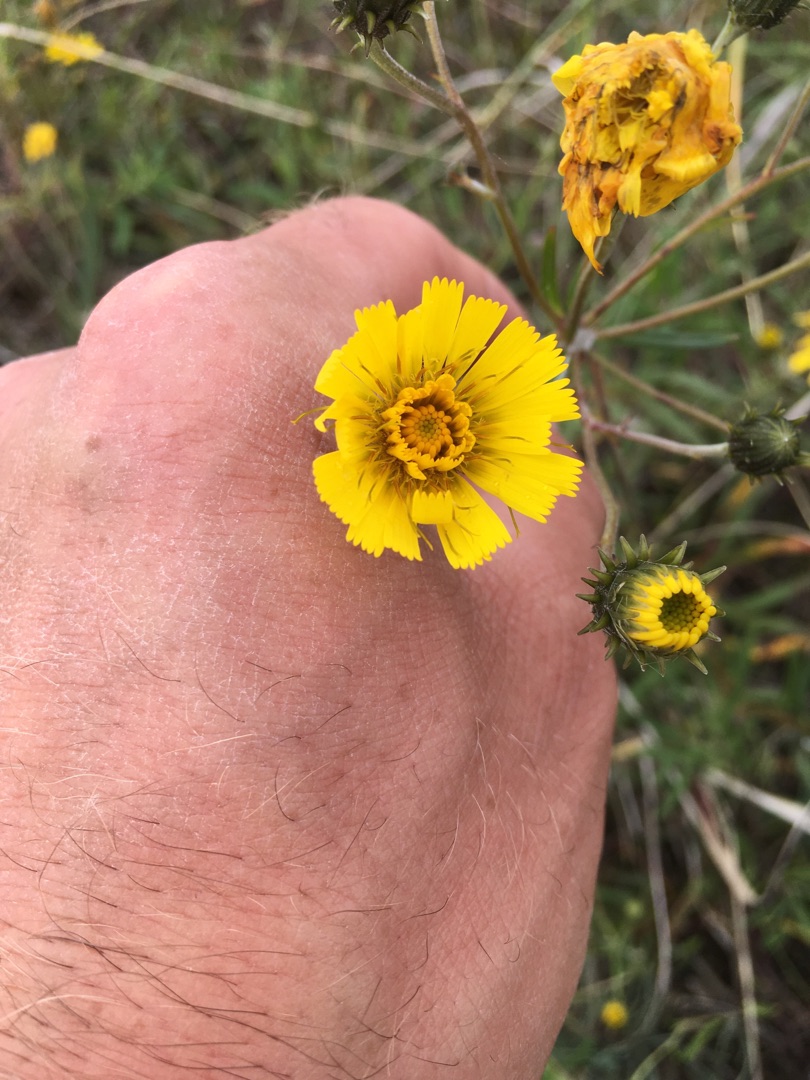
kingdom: Plantae
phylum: Tracheophyta
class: Magnoliopsida
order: Asterales
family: Asteraceae
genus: Hieracium
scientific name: Hieracium umbellatum
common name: Smalbladet høgeurt
